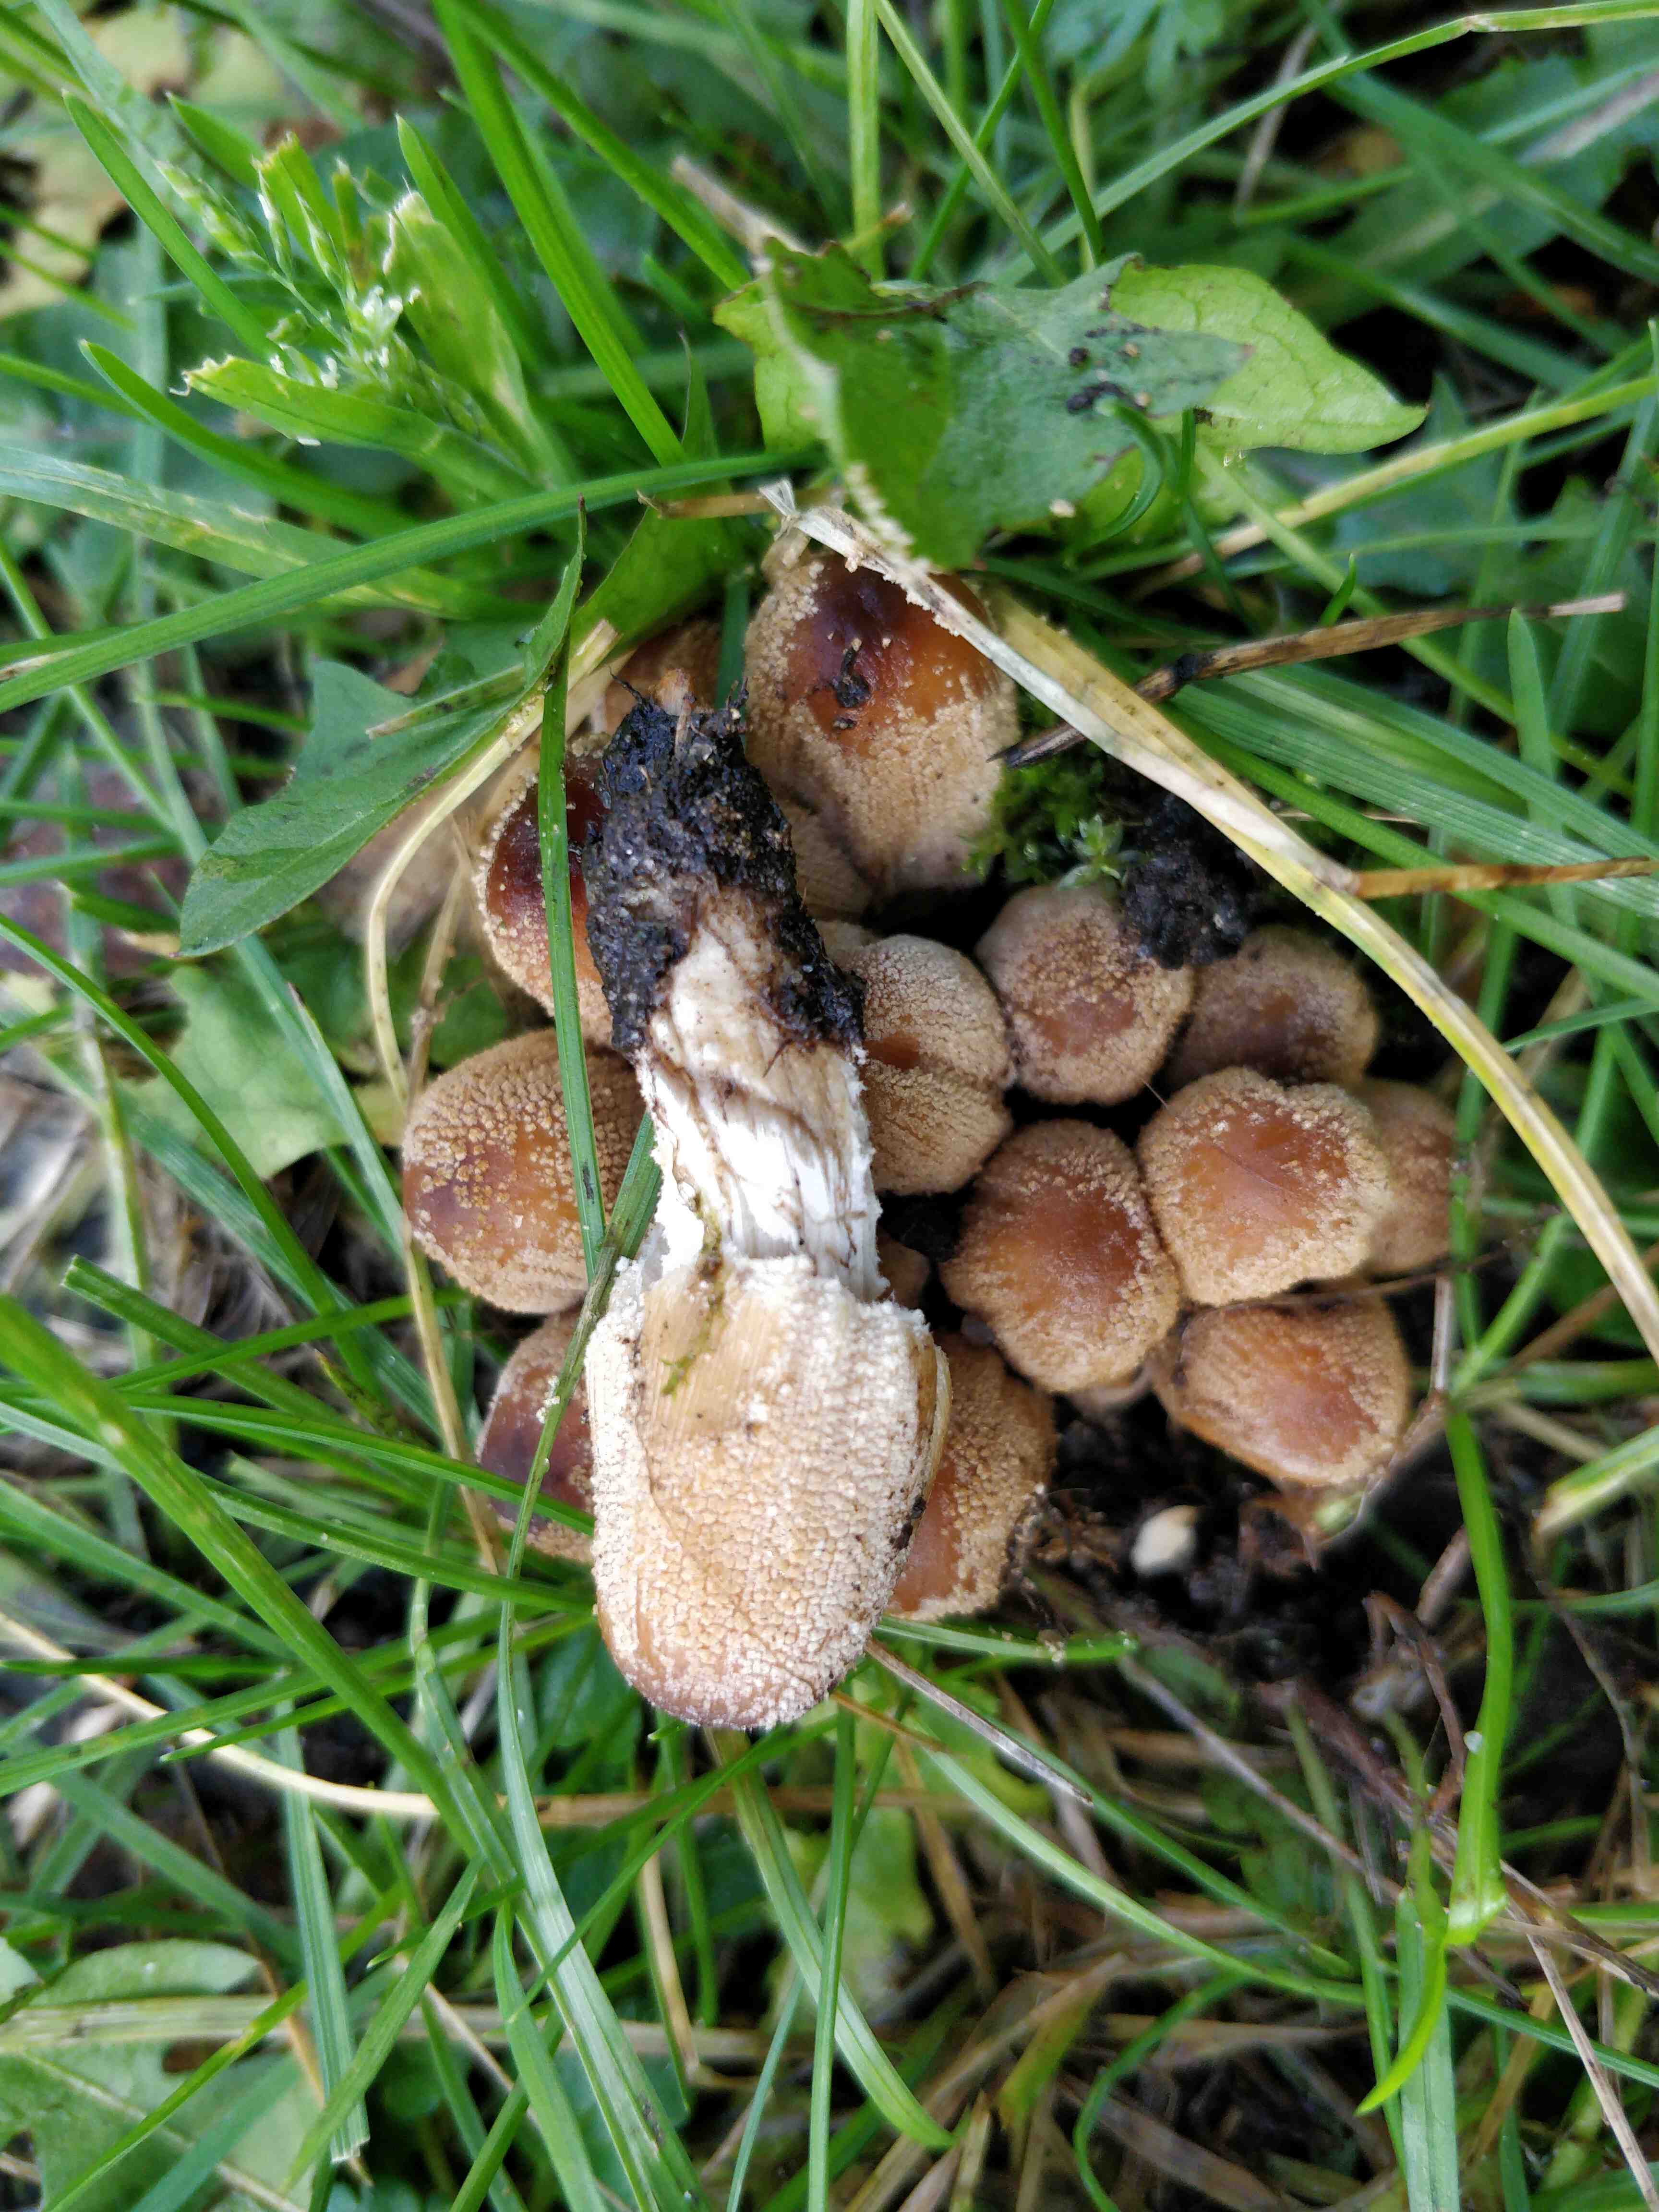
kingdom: Fungi
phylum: Basidiomycota
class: Agaricomycetes
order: Agaricales
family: Psathyrellaceae
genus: Coprinellus
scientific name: Coprinellus micaceus
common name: glimmer-blækhat
